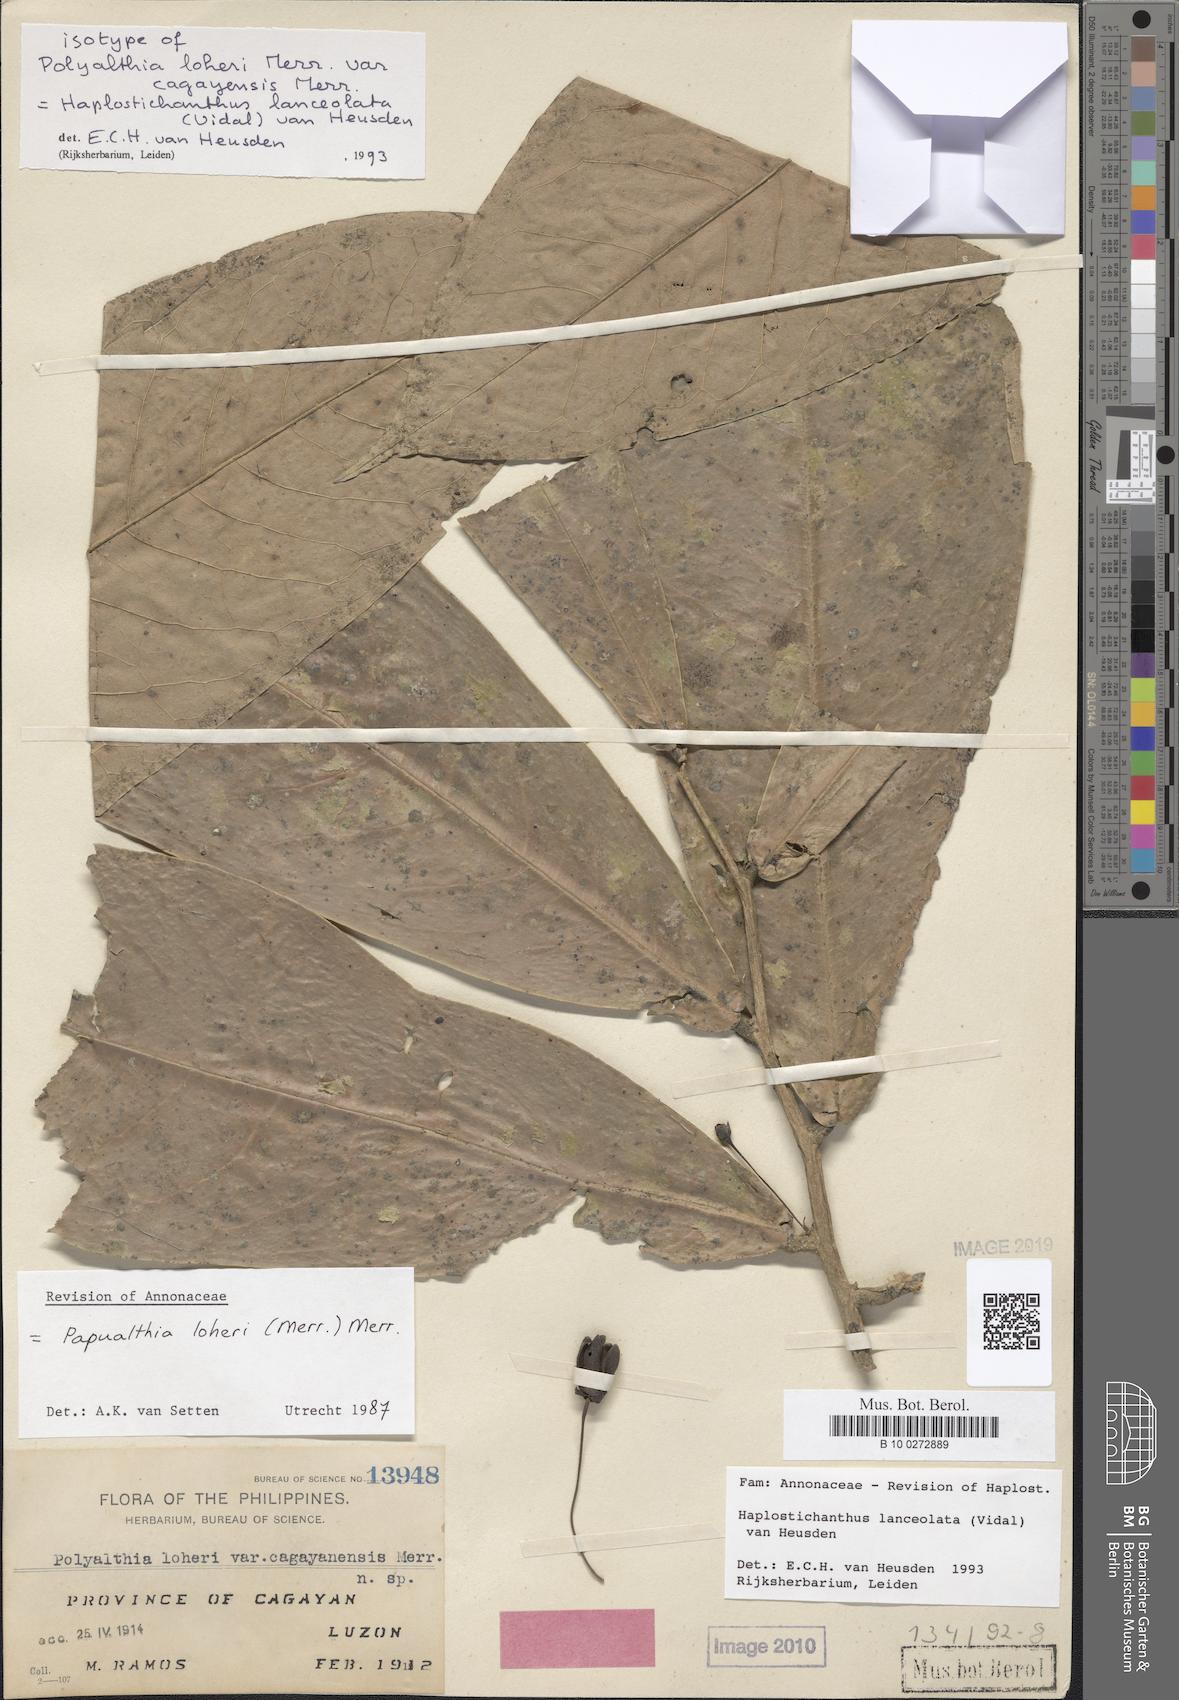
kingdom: Plantae
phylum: Tracheophyta
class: Magnoliopsida
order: Magnoliales
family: Annonaceae
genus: Haplostichanthus
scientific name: Haplostichanthus lanceolata
